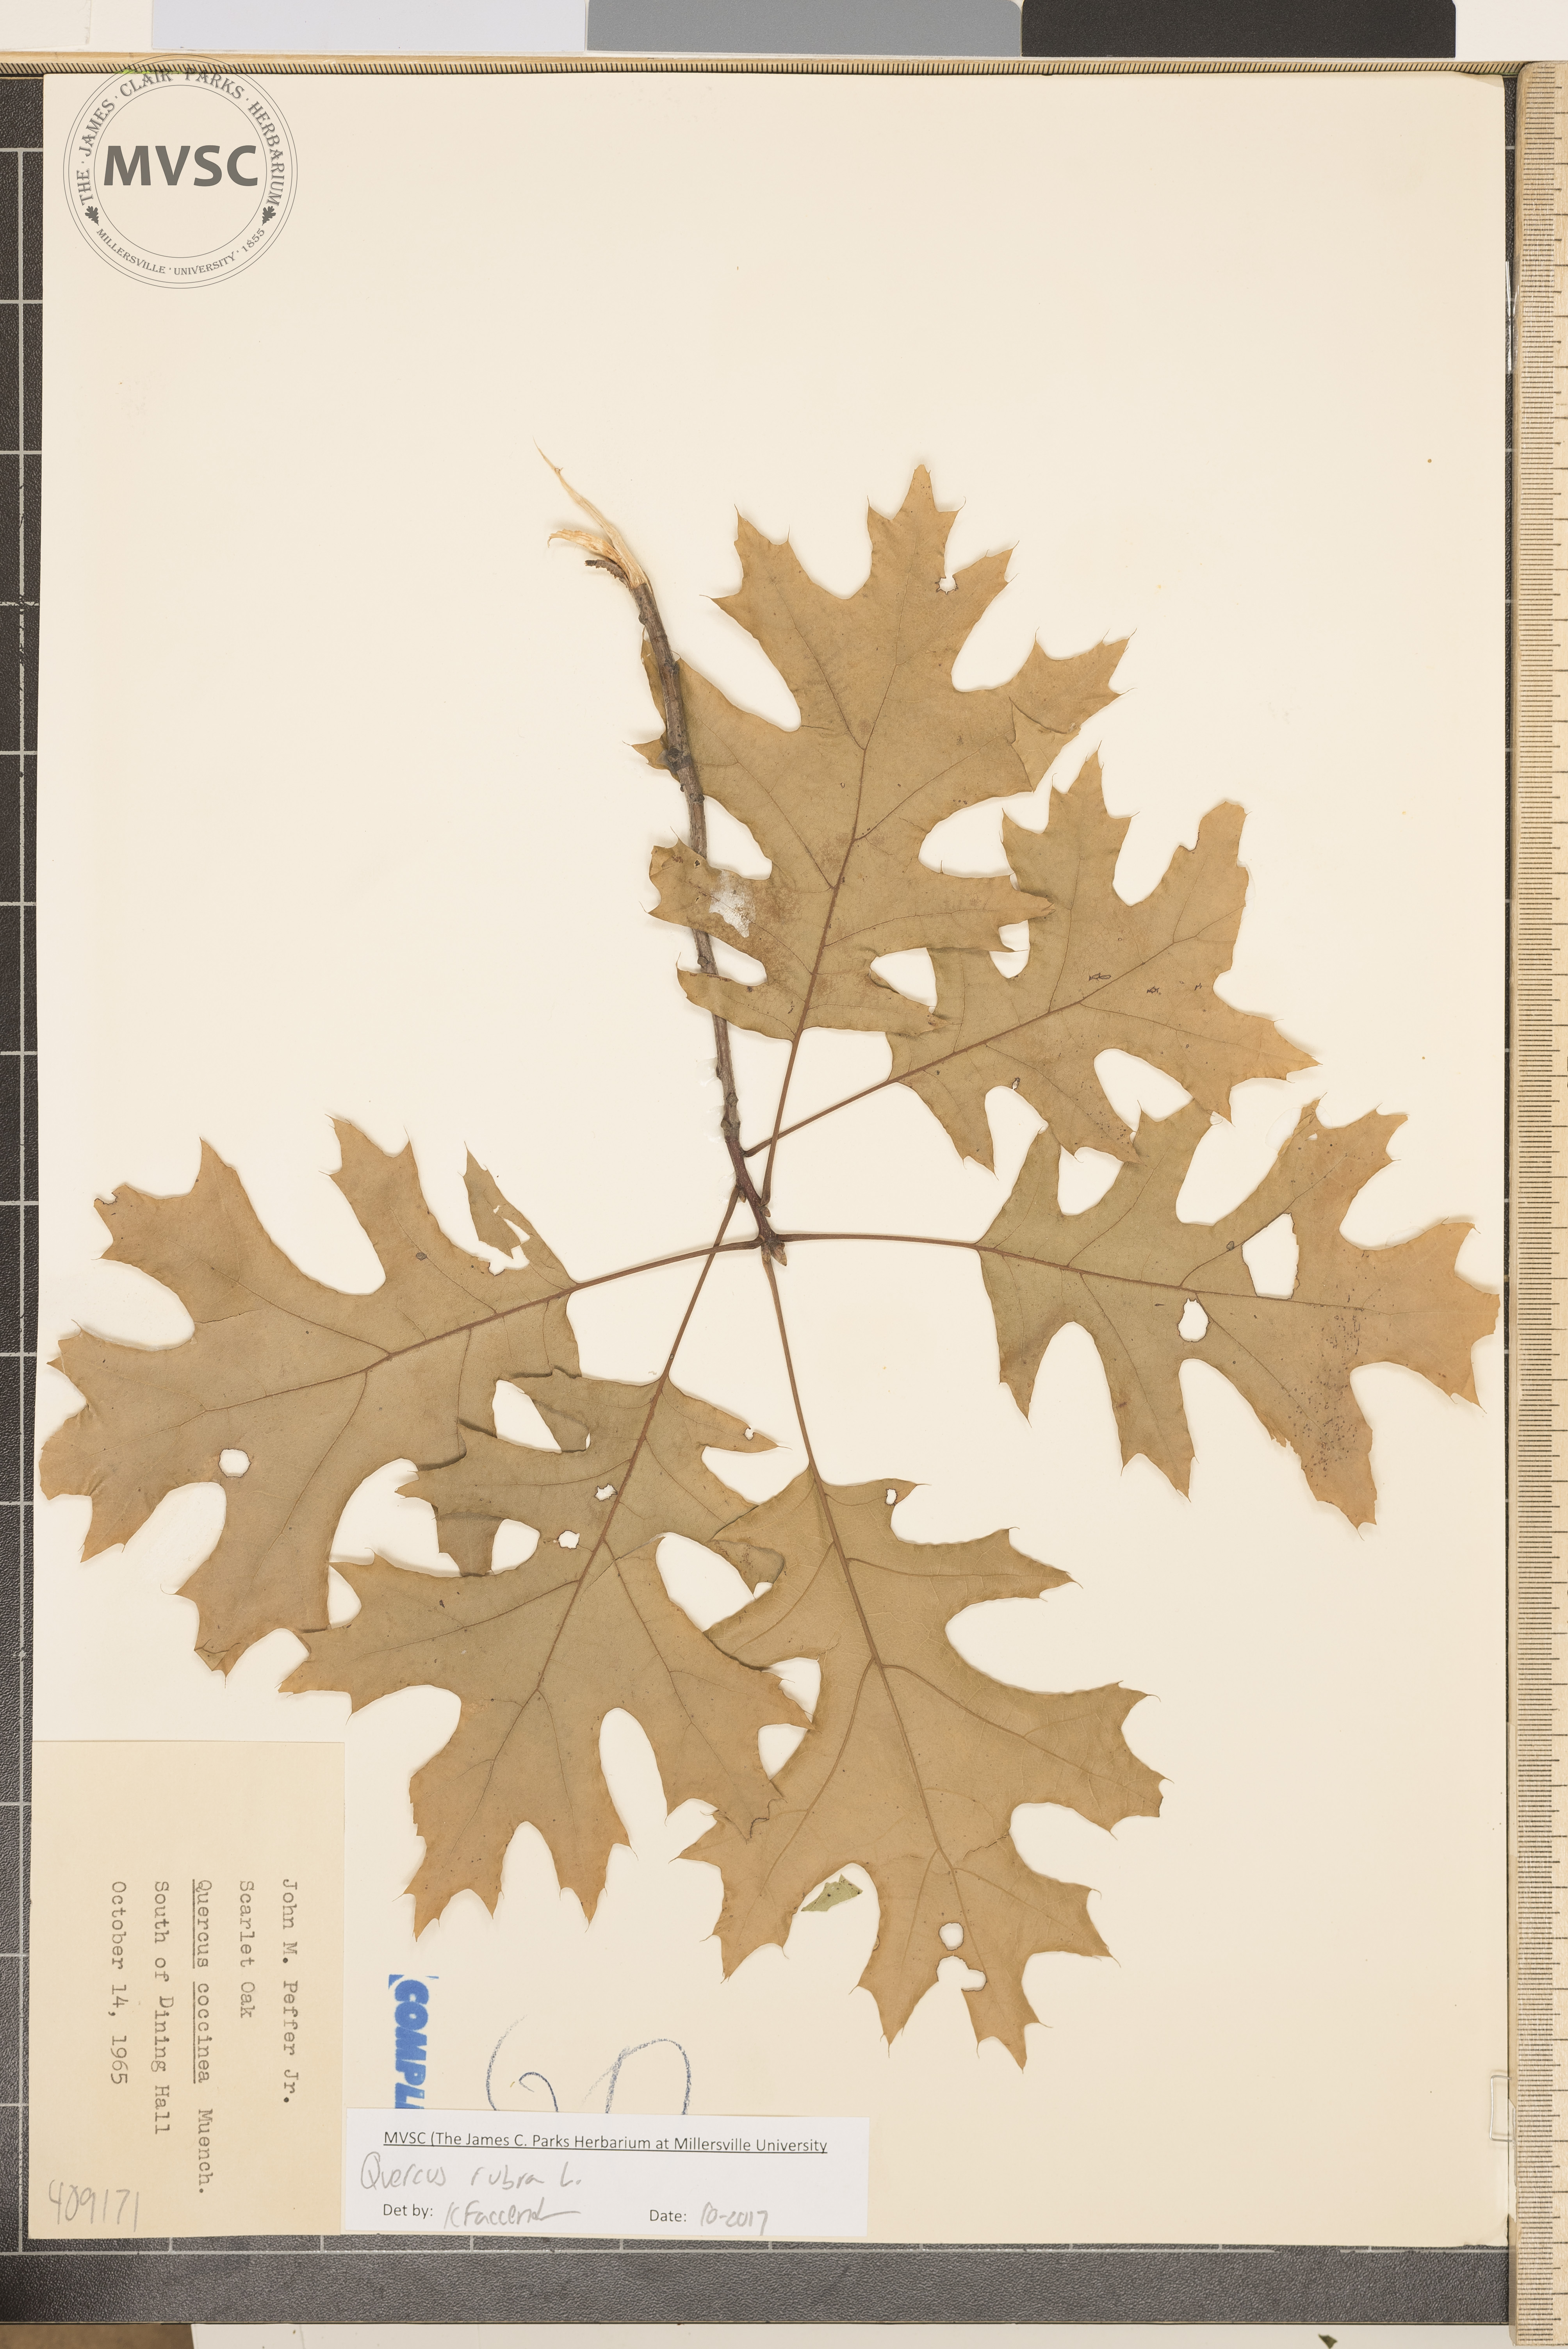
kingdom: Plantae
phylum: Tracheophyta
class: Magnoliopsida
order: Fagales
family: Fagaceae
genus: Quercus
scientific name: Quercus rubra
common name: Red oak
